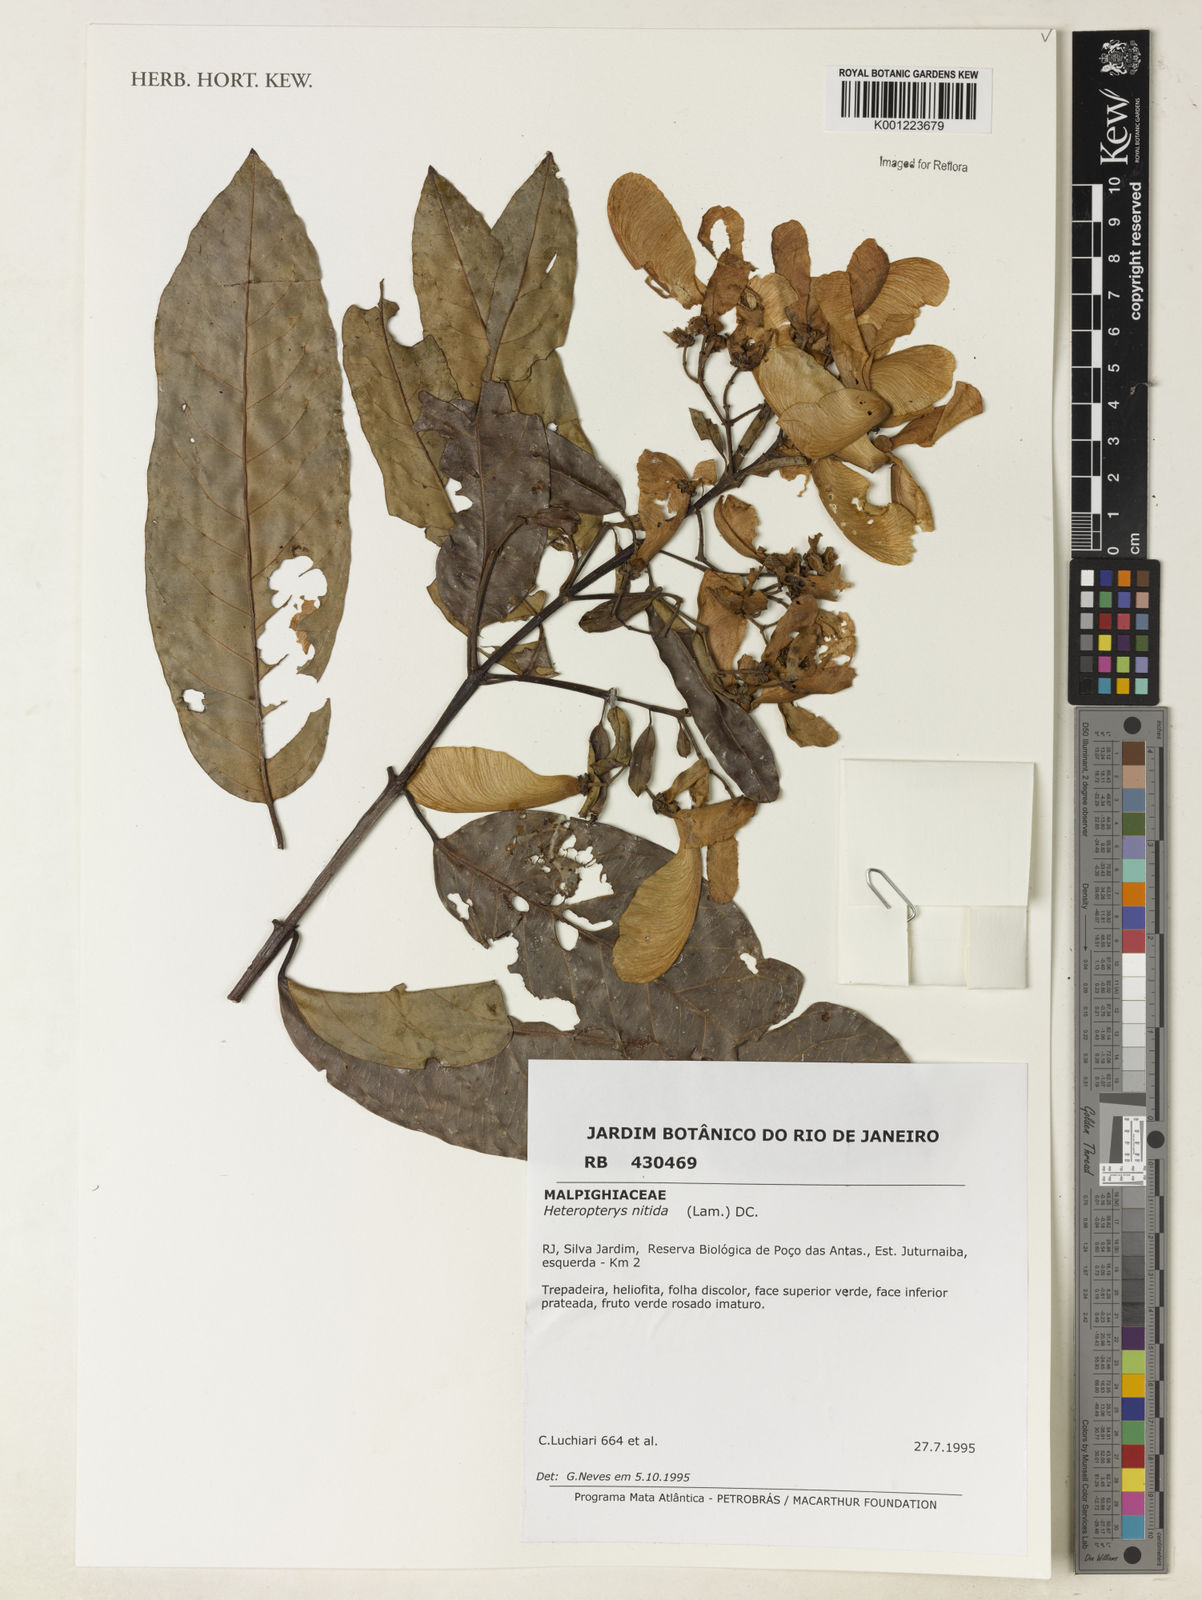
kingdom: Plantae
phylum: Tracheophyta
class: Magnoliopsida
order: Malpighiales
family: Malpighiaceae
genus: Heteropterys
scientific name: Heteropterys nitida
